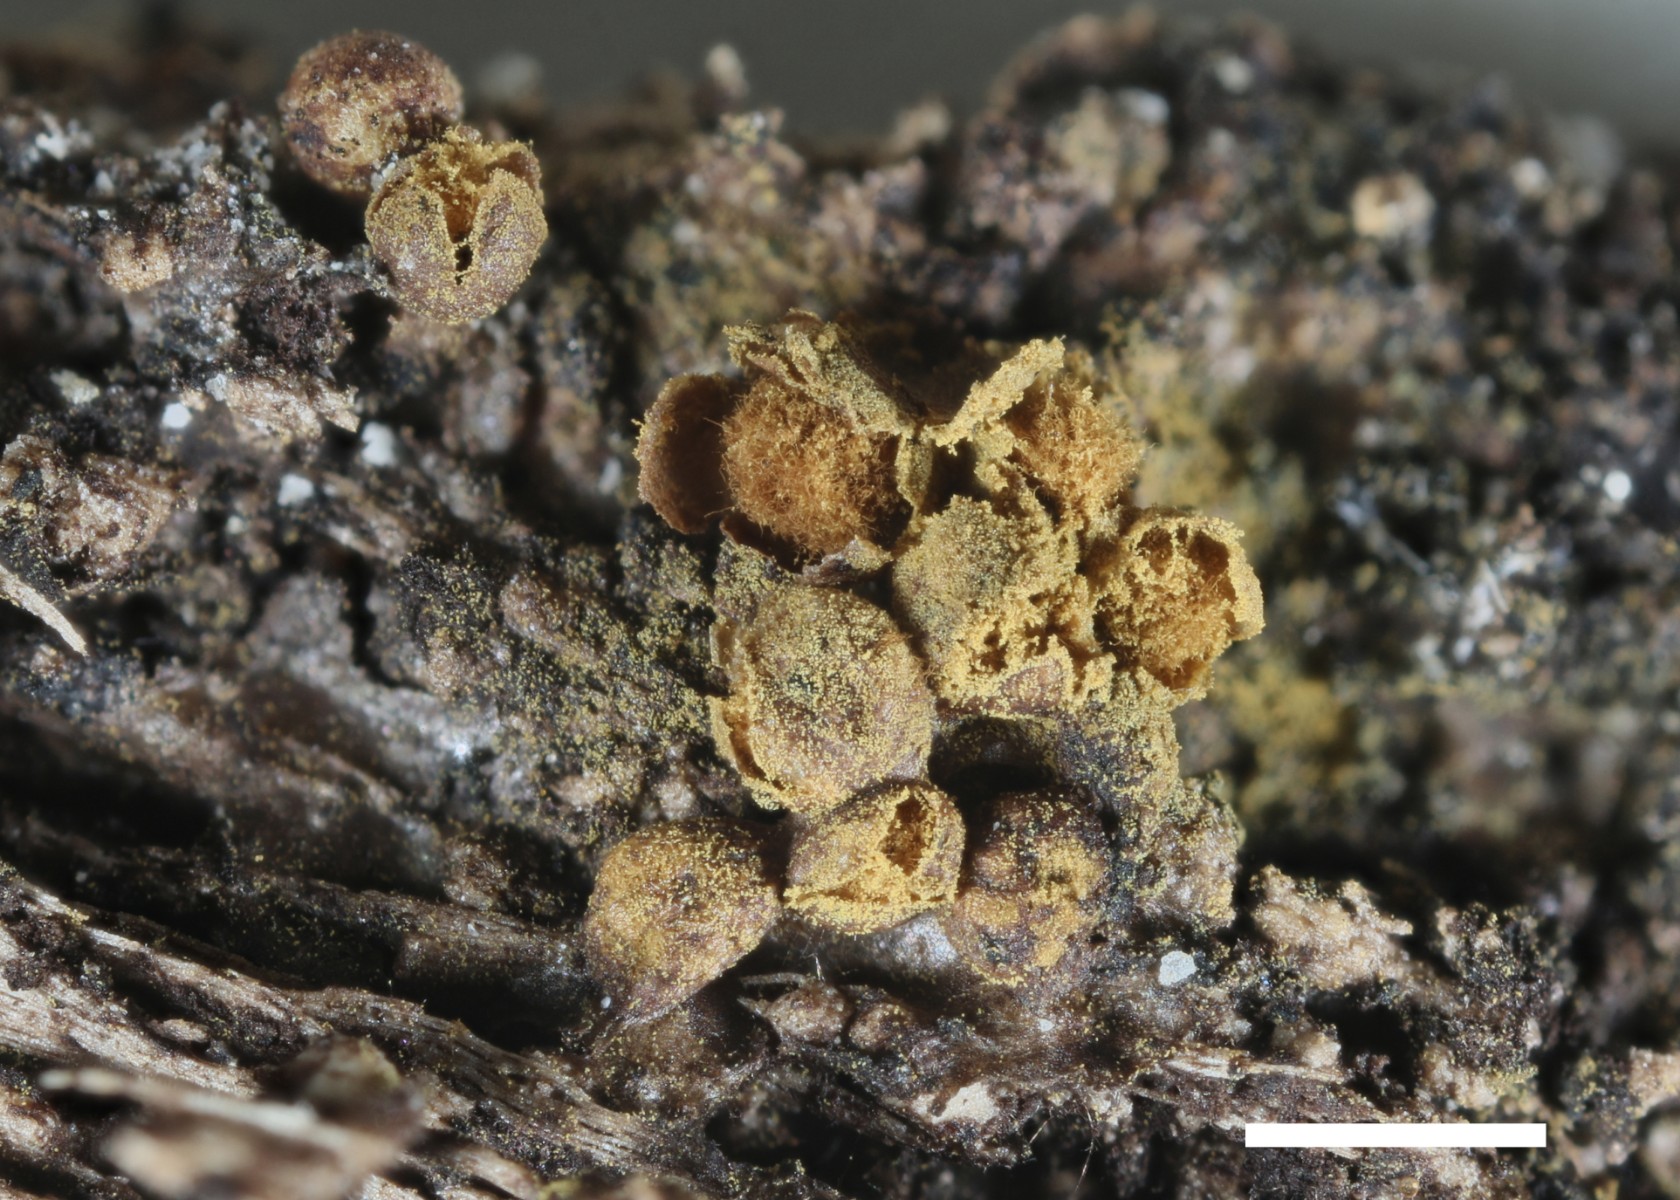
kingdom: Protozoa
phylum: Mycetozoa
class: Myxomycetes
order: Trichiales
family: Trichiaceae
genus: Trichia
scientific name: Trichia contorta
